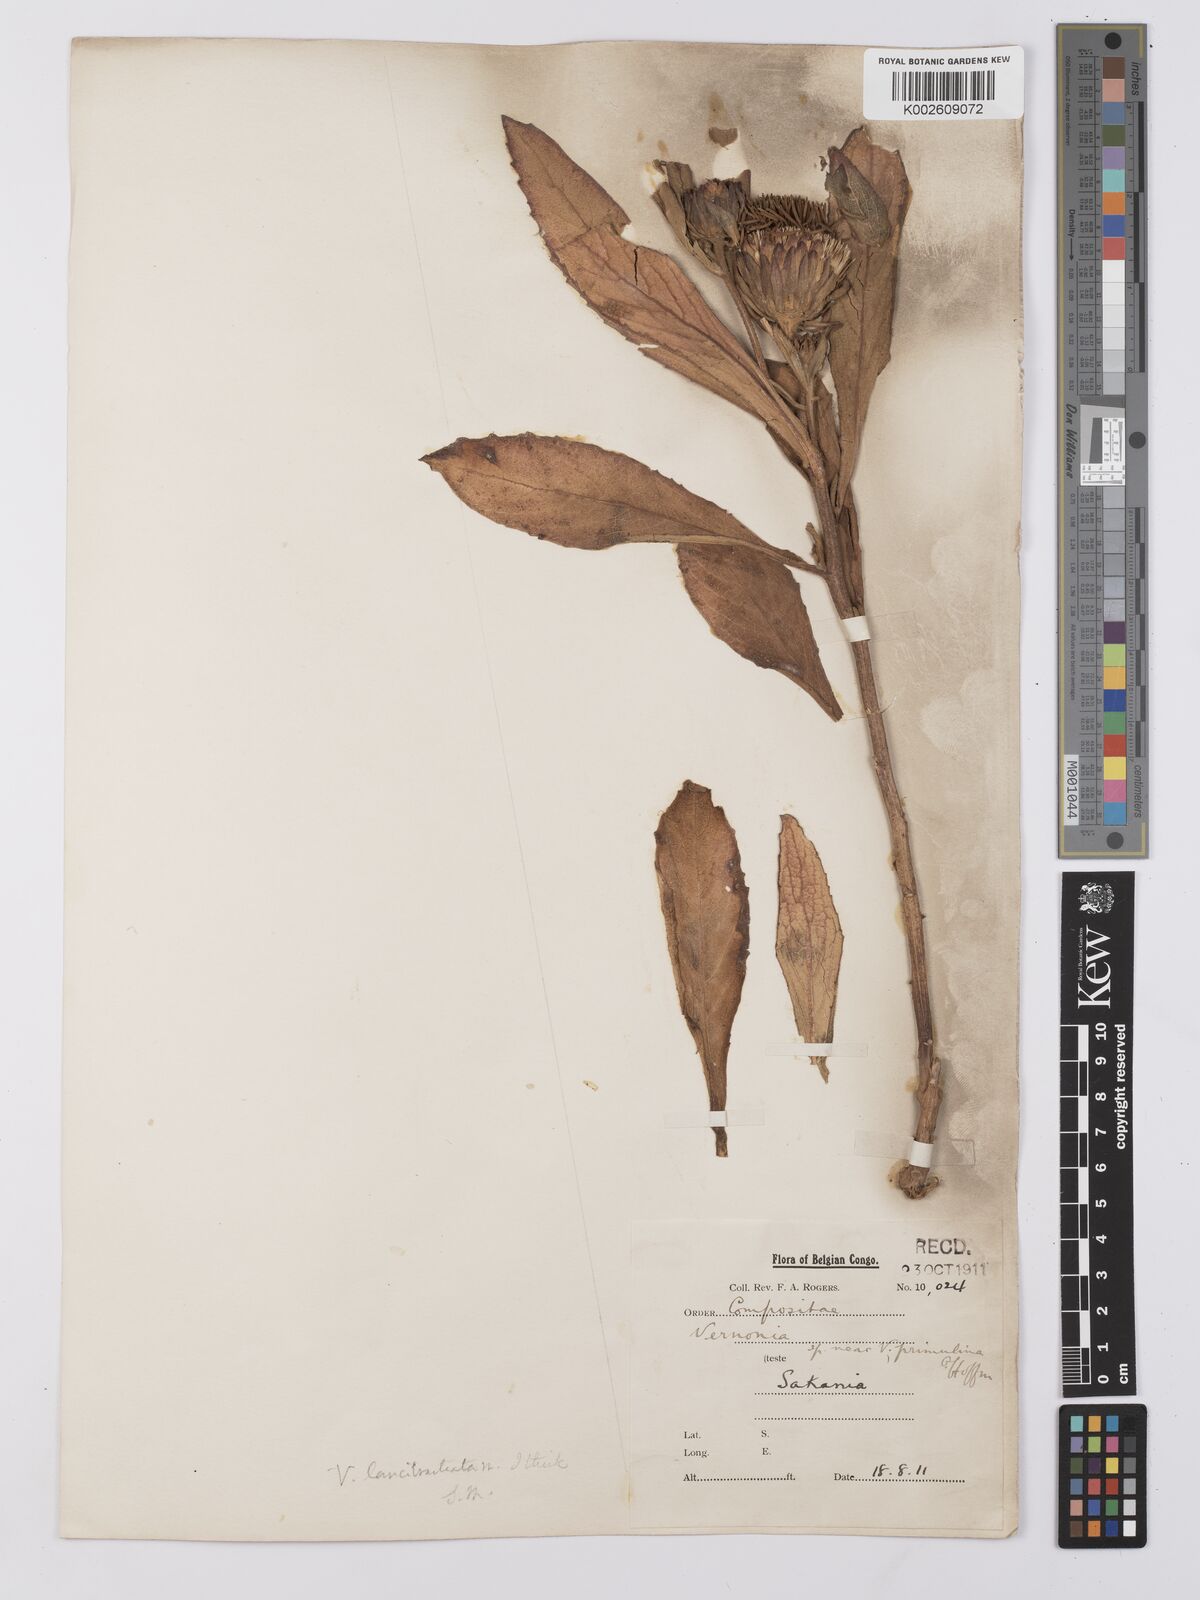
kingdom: Plantae
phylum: Tracheophyta
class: Magnoliopsida
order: Asterales
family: Asteraceae
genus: Baccharoides
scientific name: Baccharoides filipendula
